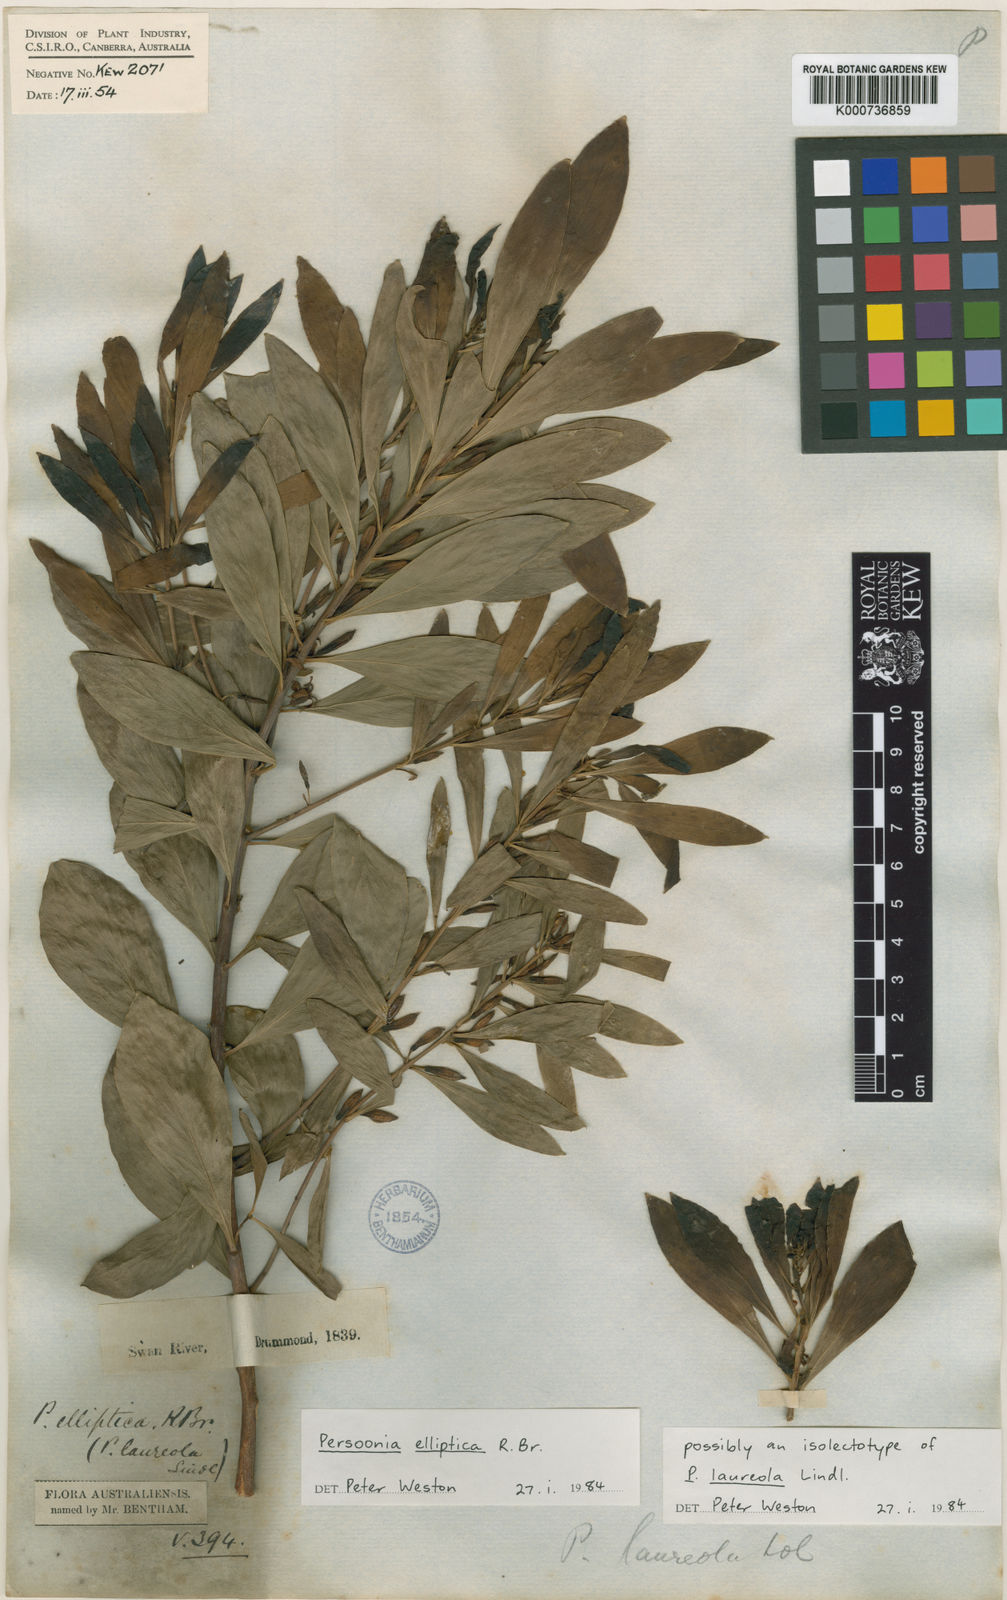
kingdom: Plantae
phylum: Tracheophyta
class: Magnoliopsida
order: Proteales
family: Proteaceae
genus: Persoonia
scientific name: Persoonia elliptica
